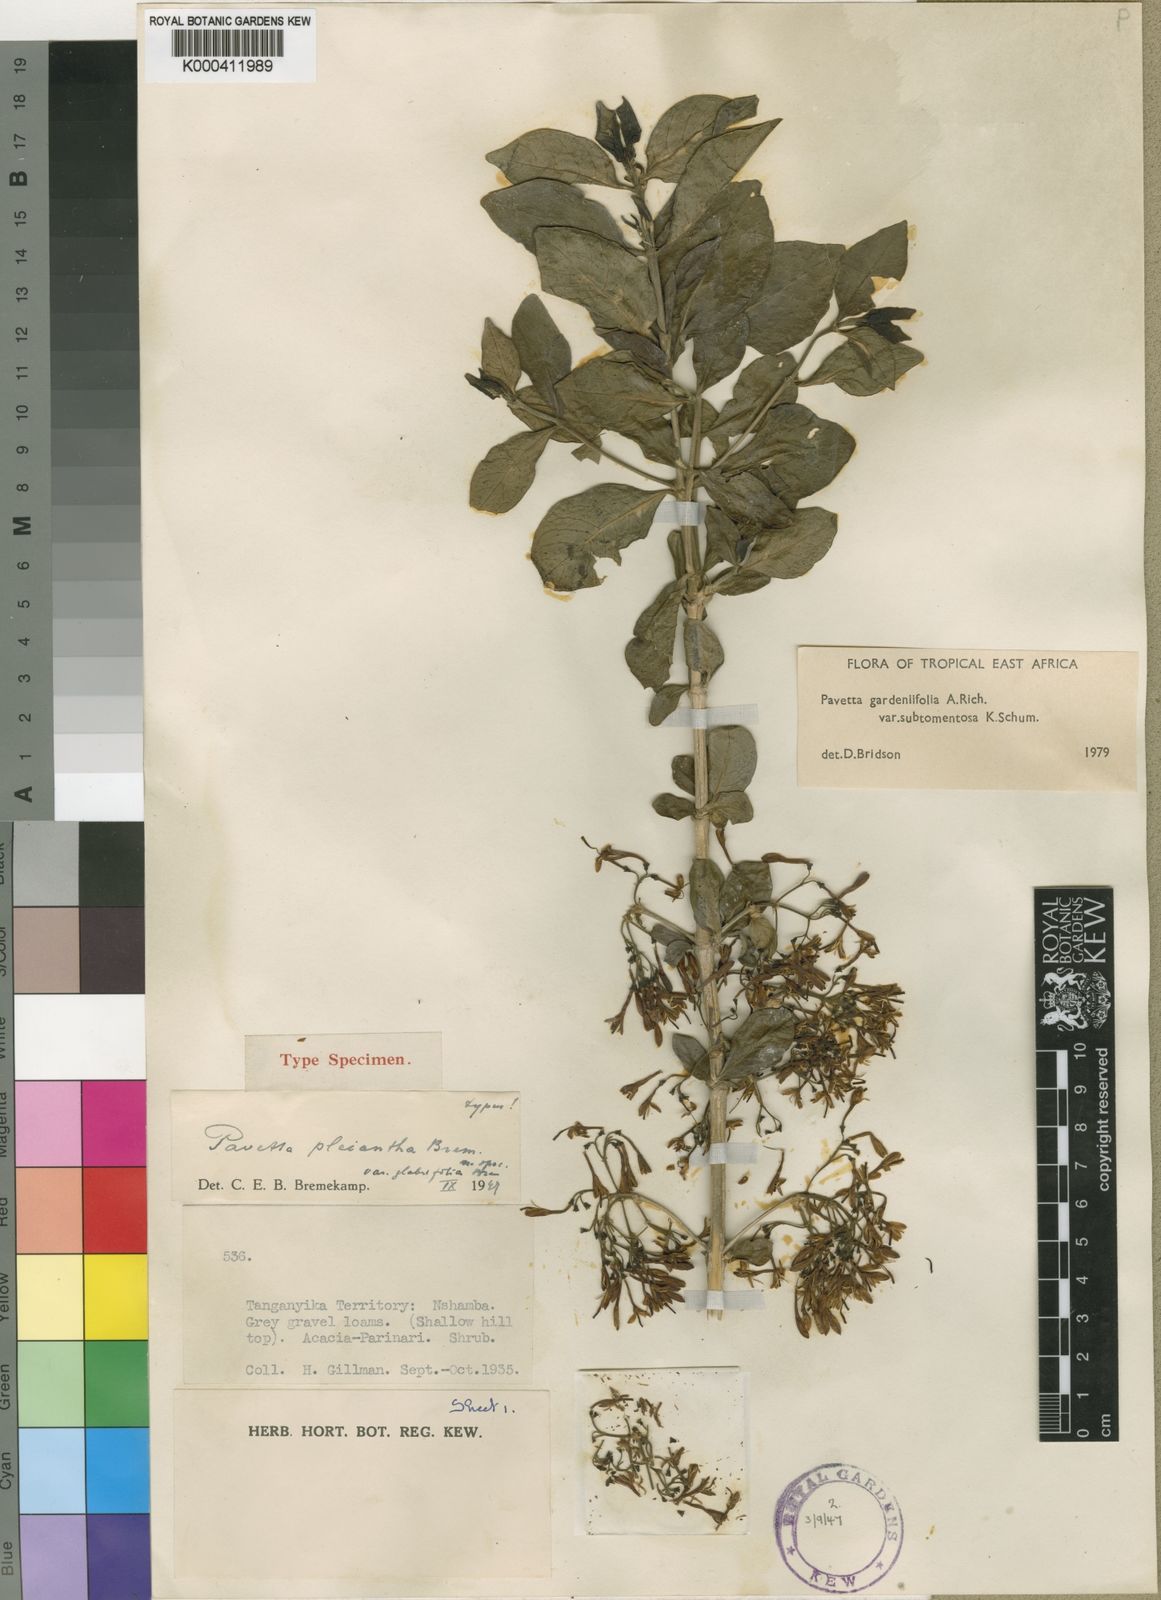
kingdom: Plantae
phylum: Tracheophyta
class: Magnoliopsida
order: Gentianales
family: Rubiaceae
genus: Pavetta
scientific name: Pavetta gardeniifolia
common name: Common brides-bush
